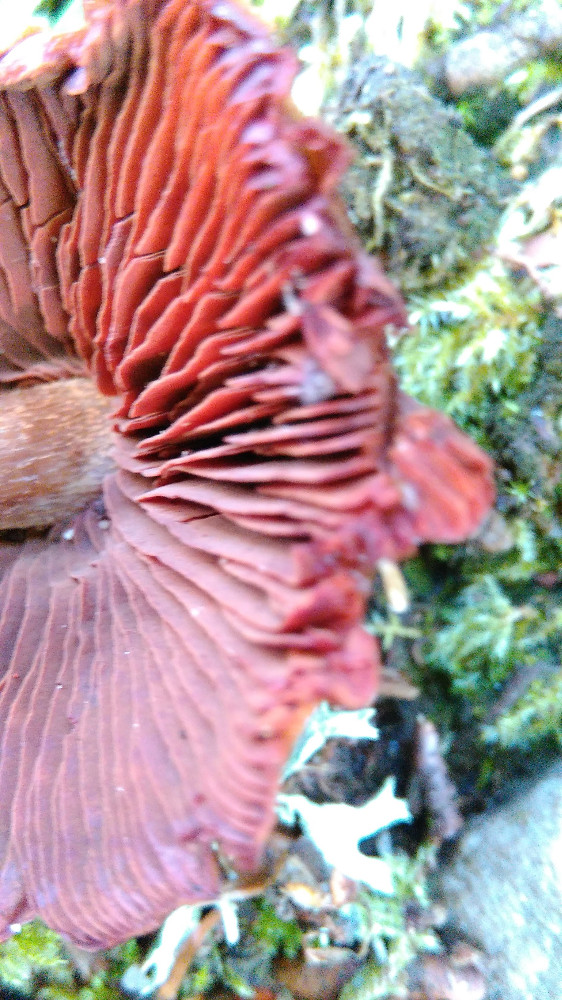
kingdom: Fungi
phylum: Basidiomycota
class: Agaricomycetes
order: Agaricales
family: Cortinariaceae
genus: Cortinarius
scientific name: Cortinarius
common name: cinnoberbladet slørhat
